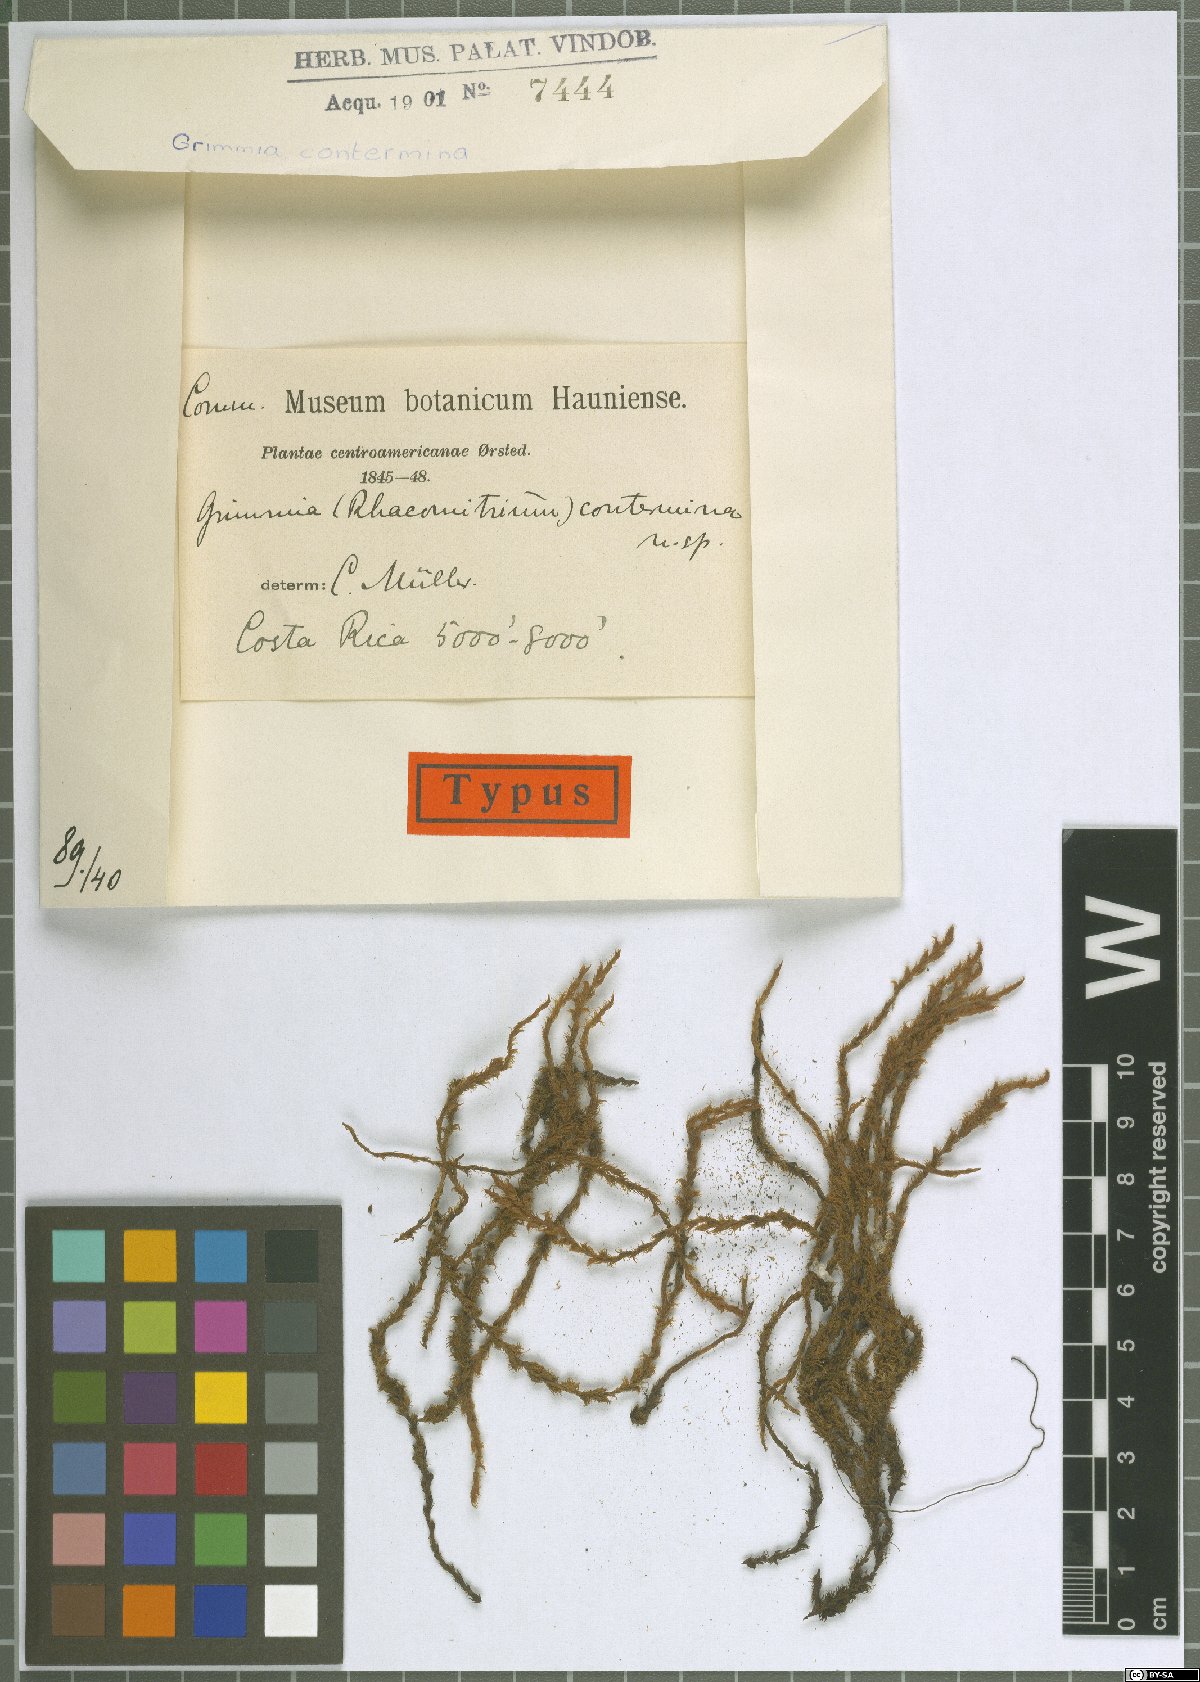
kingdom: Plantae
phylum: Bryophyta
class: Bryopsida
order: Grimmiales
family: Grimmiaceae
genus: Bucklandiella
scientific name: Bucklandiella crispipila
